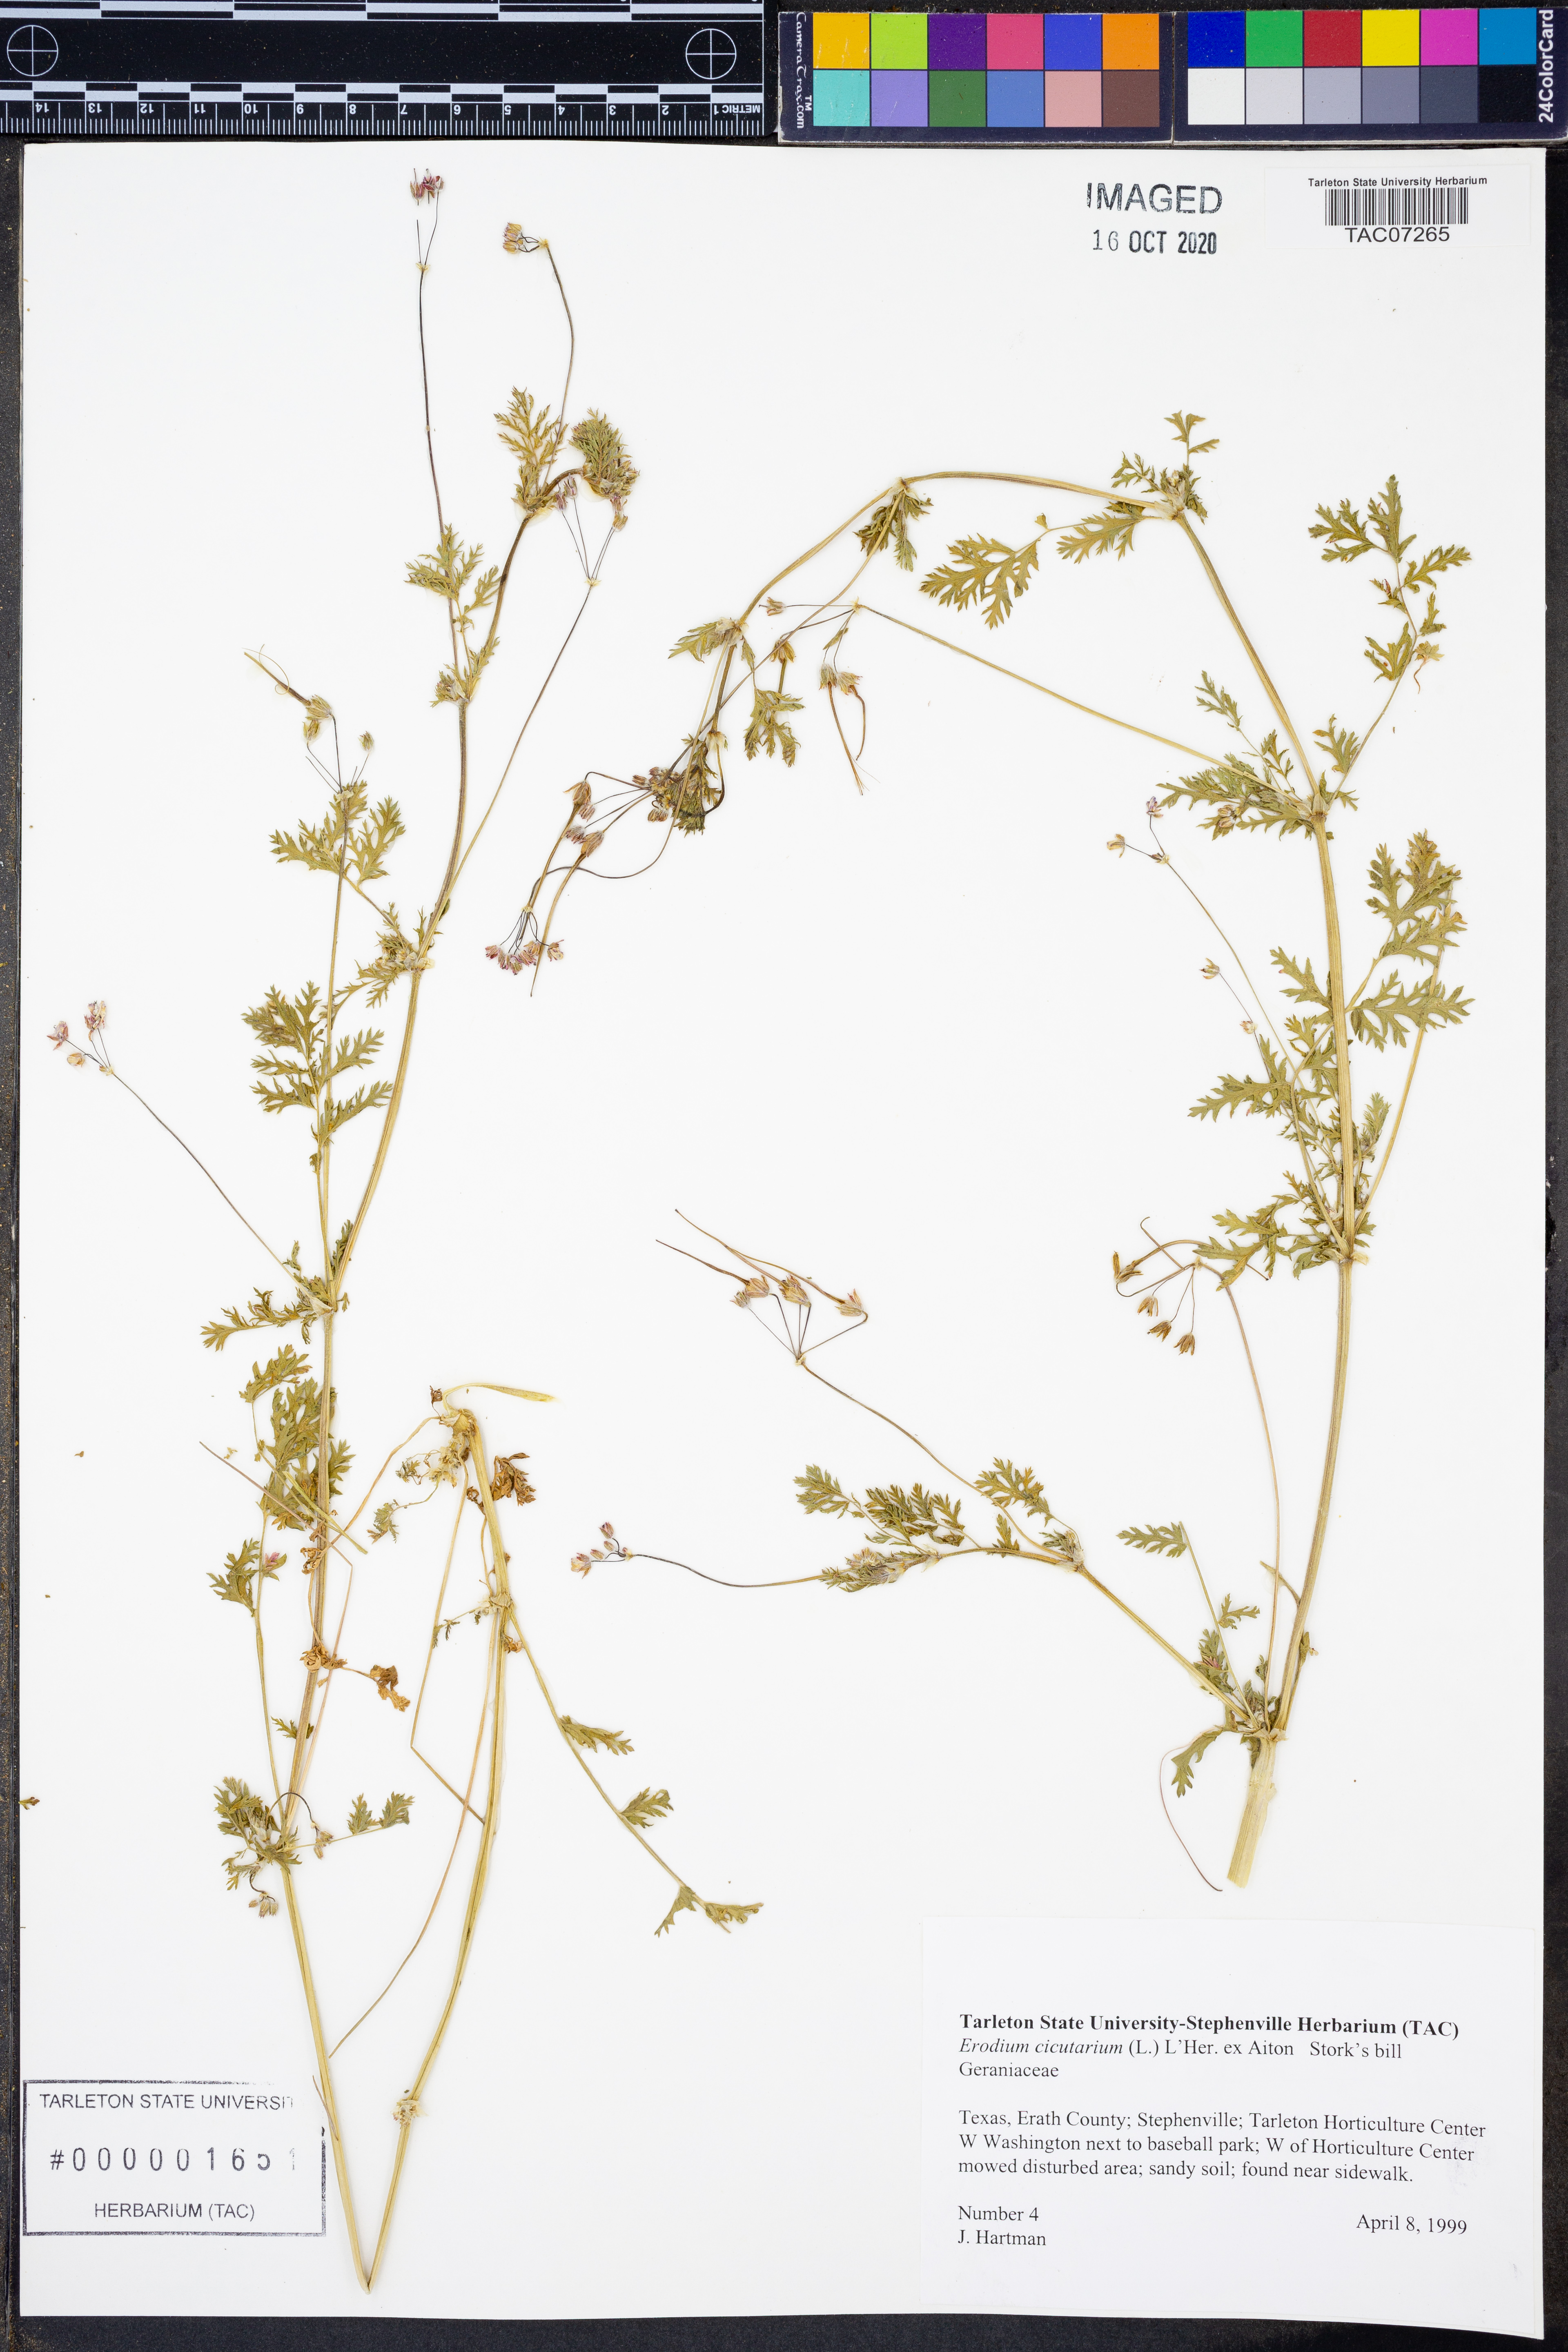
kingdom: Plantae
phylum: Tracheophyta
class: Magnoliopsida
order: Geraniales
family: Geraniaceae
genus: Erodium
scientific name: Erodium cicutarium
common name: Common stork's-bill
